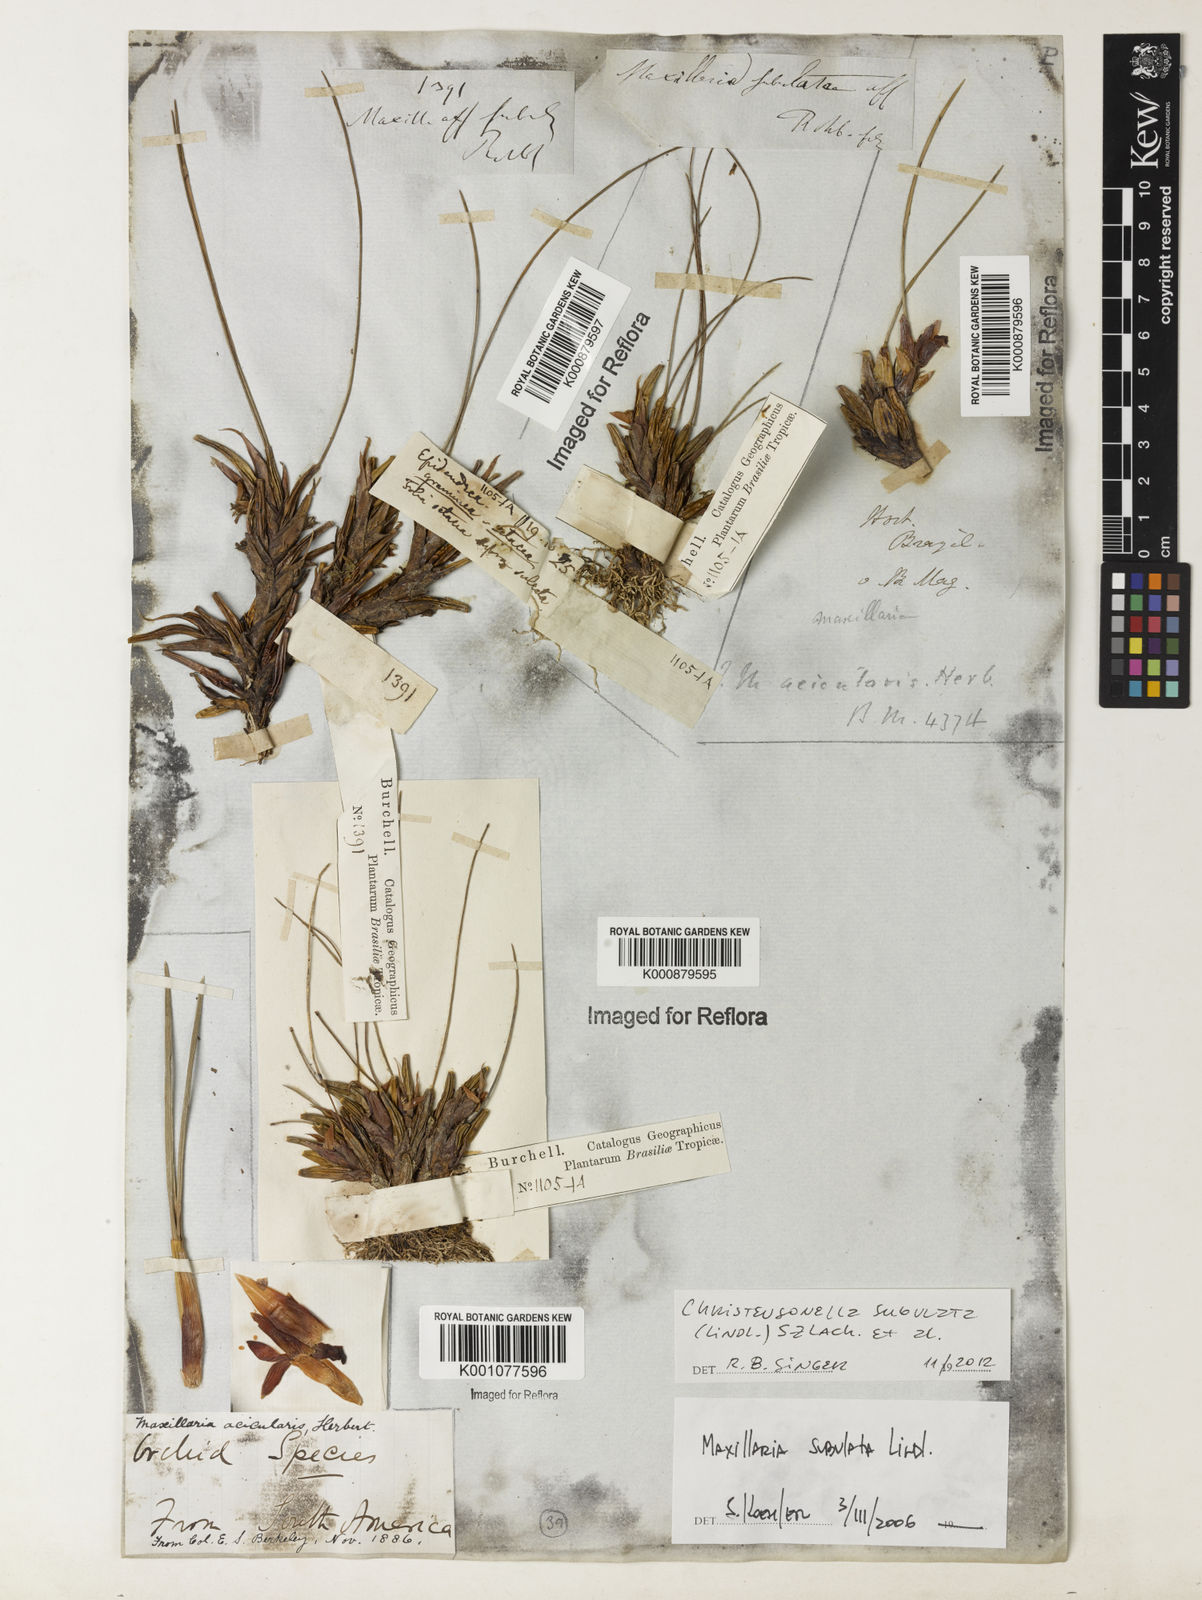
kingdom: Plantae
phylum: Tracheophyta
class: Liliopsida
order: Asparagales
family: Orchidaceae
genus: Maxillaria
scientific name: Maxillaria subulata
